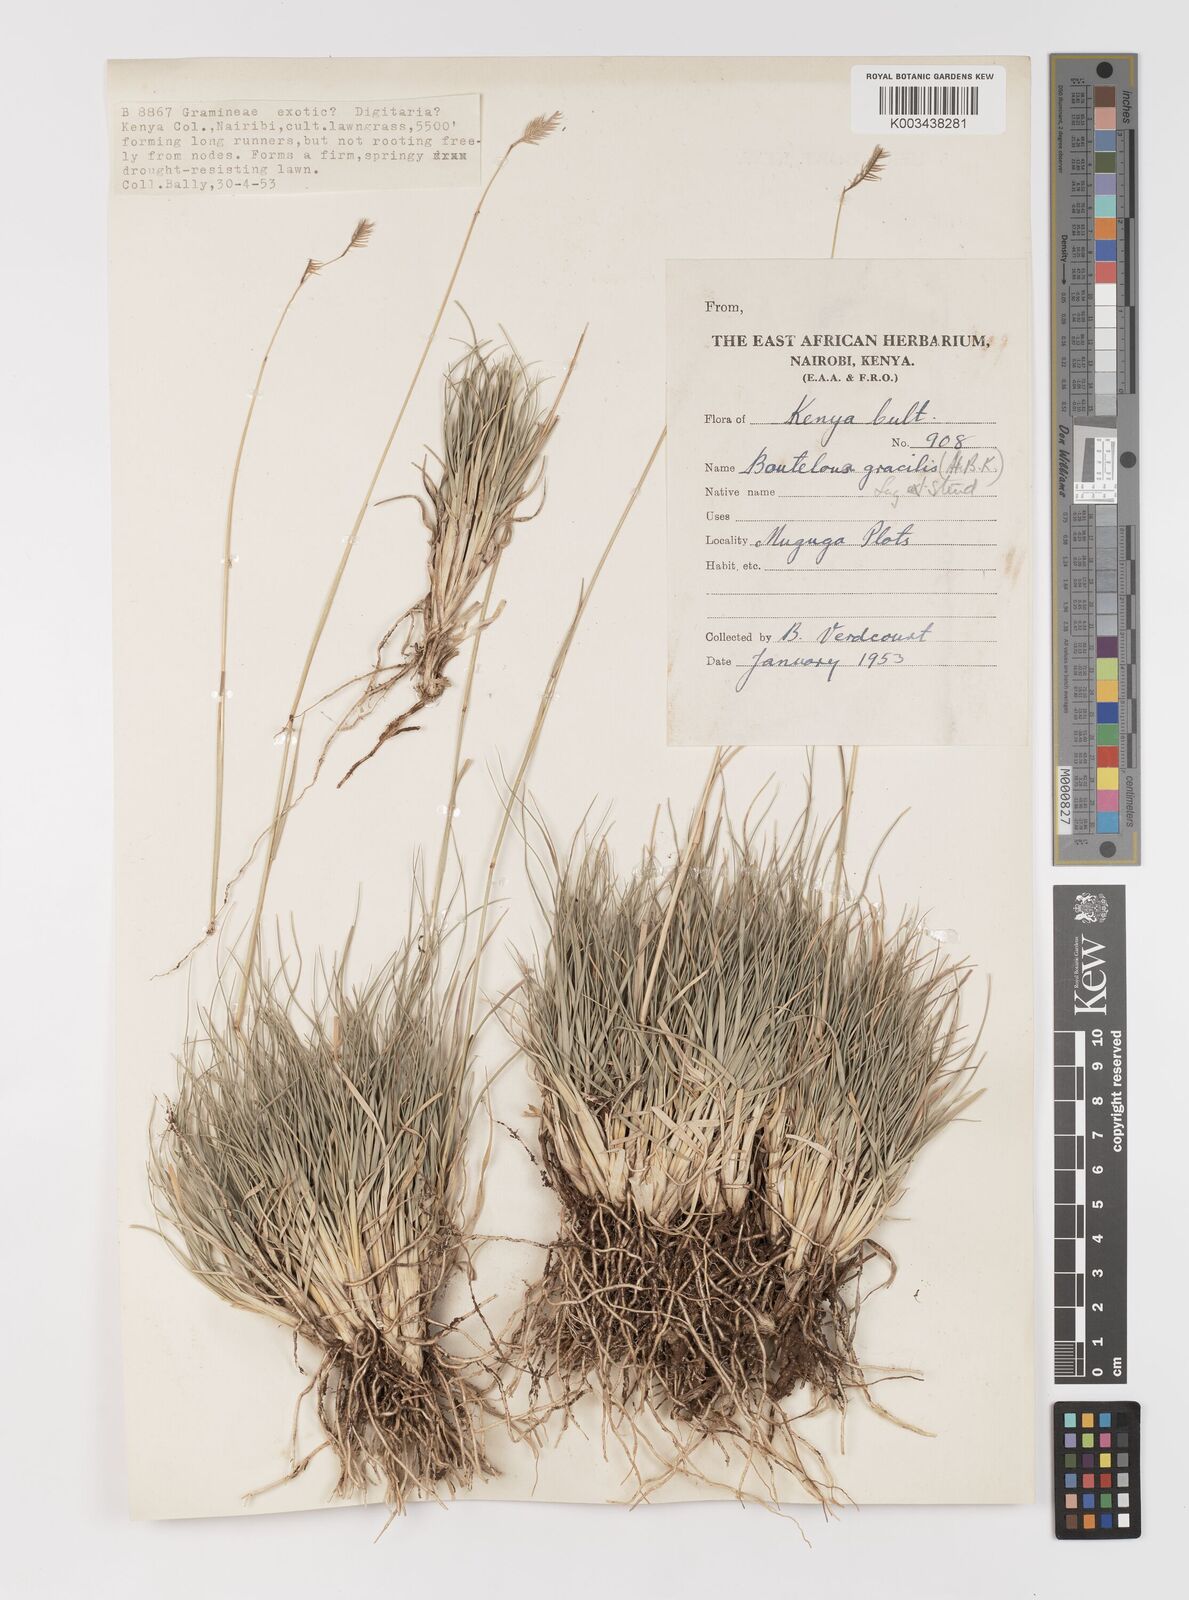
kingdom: Plantae
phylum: Tracheophyta
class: Liliopsida
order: Poales
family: Poaceae
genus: Bouteloua
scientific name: Bouteloua gracilis
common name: Blue grama
